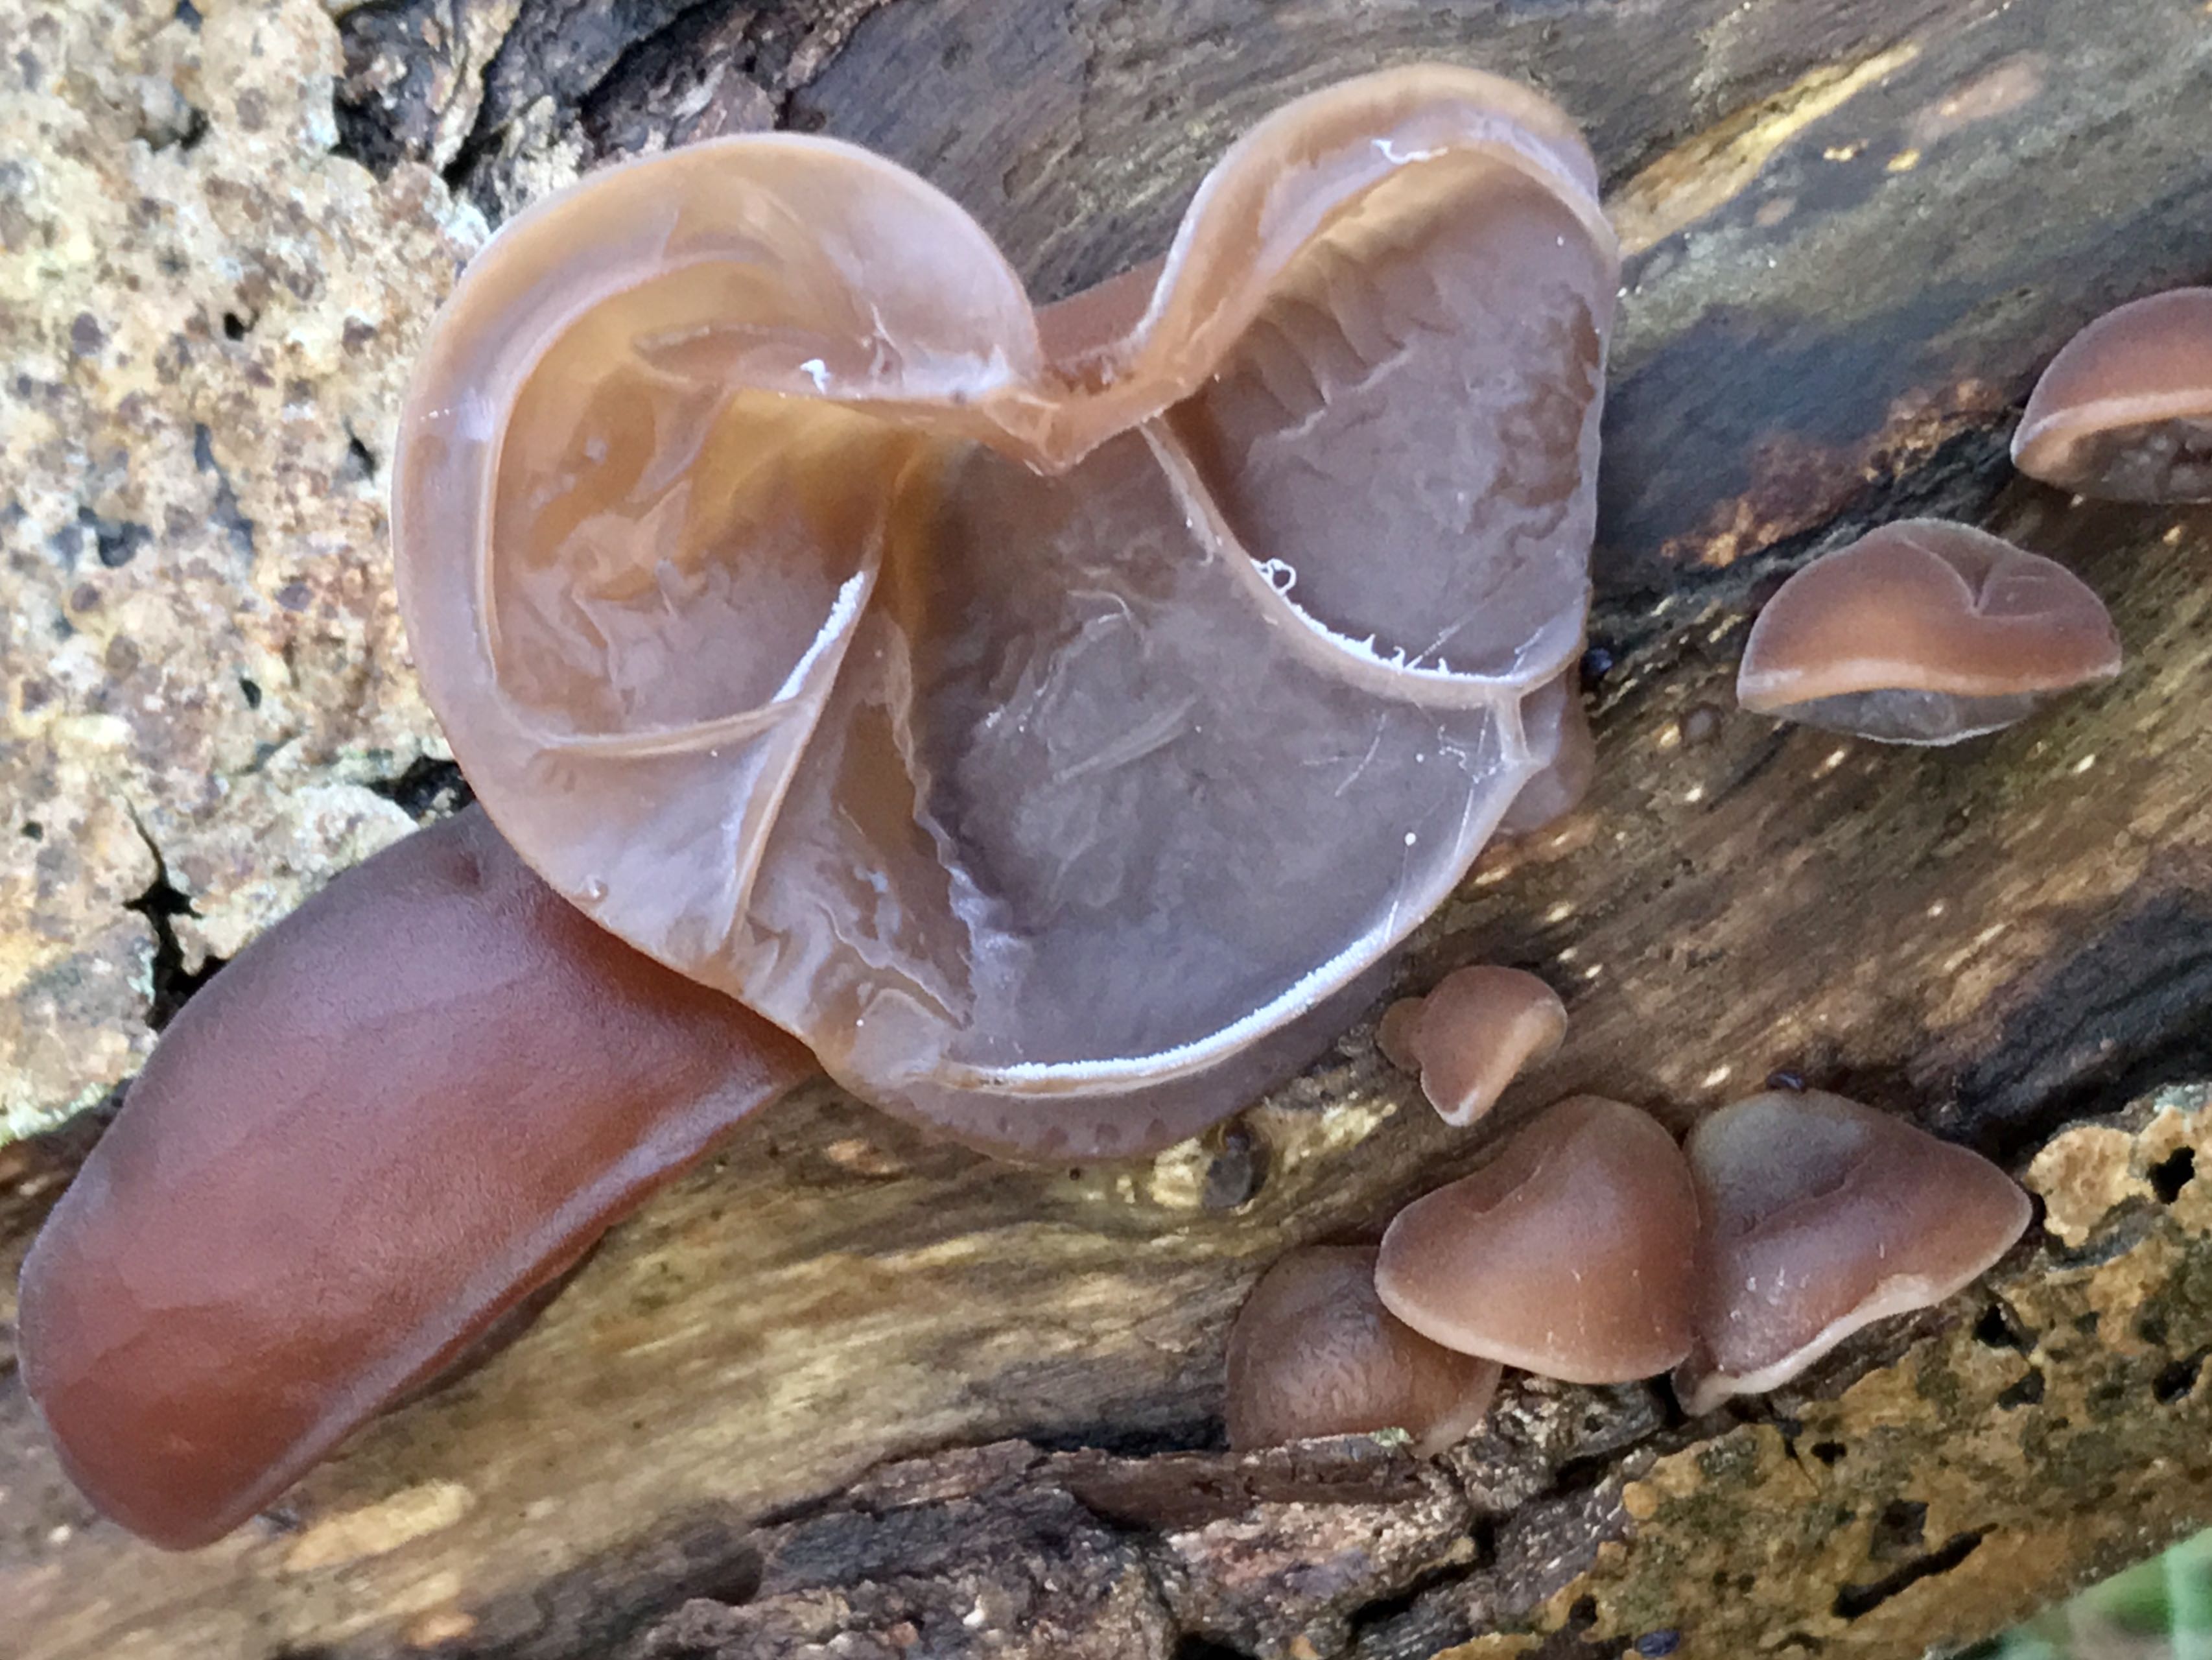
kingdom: Fungi
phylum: Basidiomycota
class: Agaricomycetes
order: Auriculariales
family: Auriculariaceae
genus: Auricularia
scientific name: Auricularia auricula-judae
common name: almindelig judasøre
